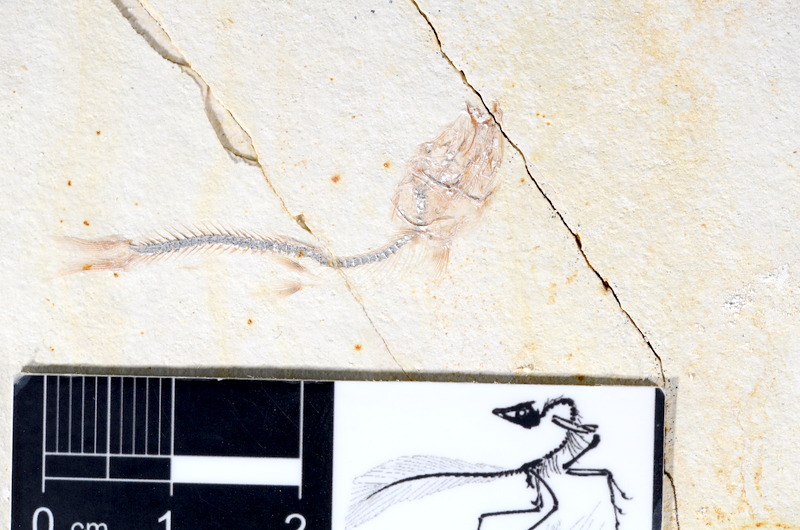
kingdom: Animalia
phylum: Chordata
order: Salmoniformes
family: Orthogonikleithridae
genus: Orthogonikleithrus
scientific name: Orthogonikleithrus hoelli
